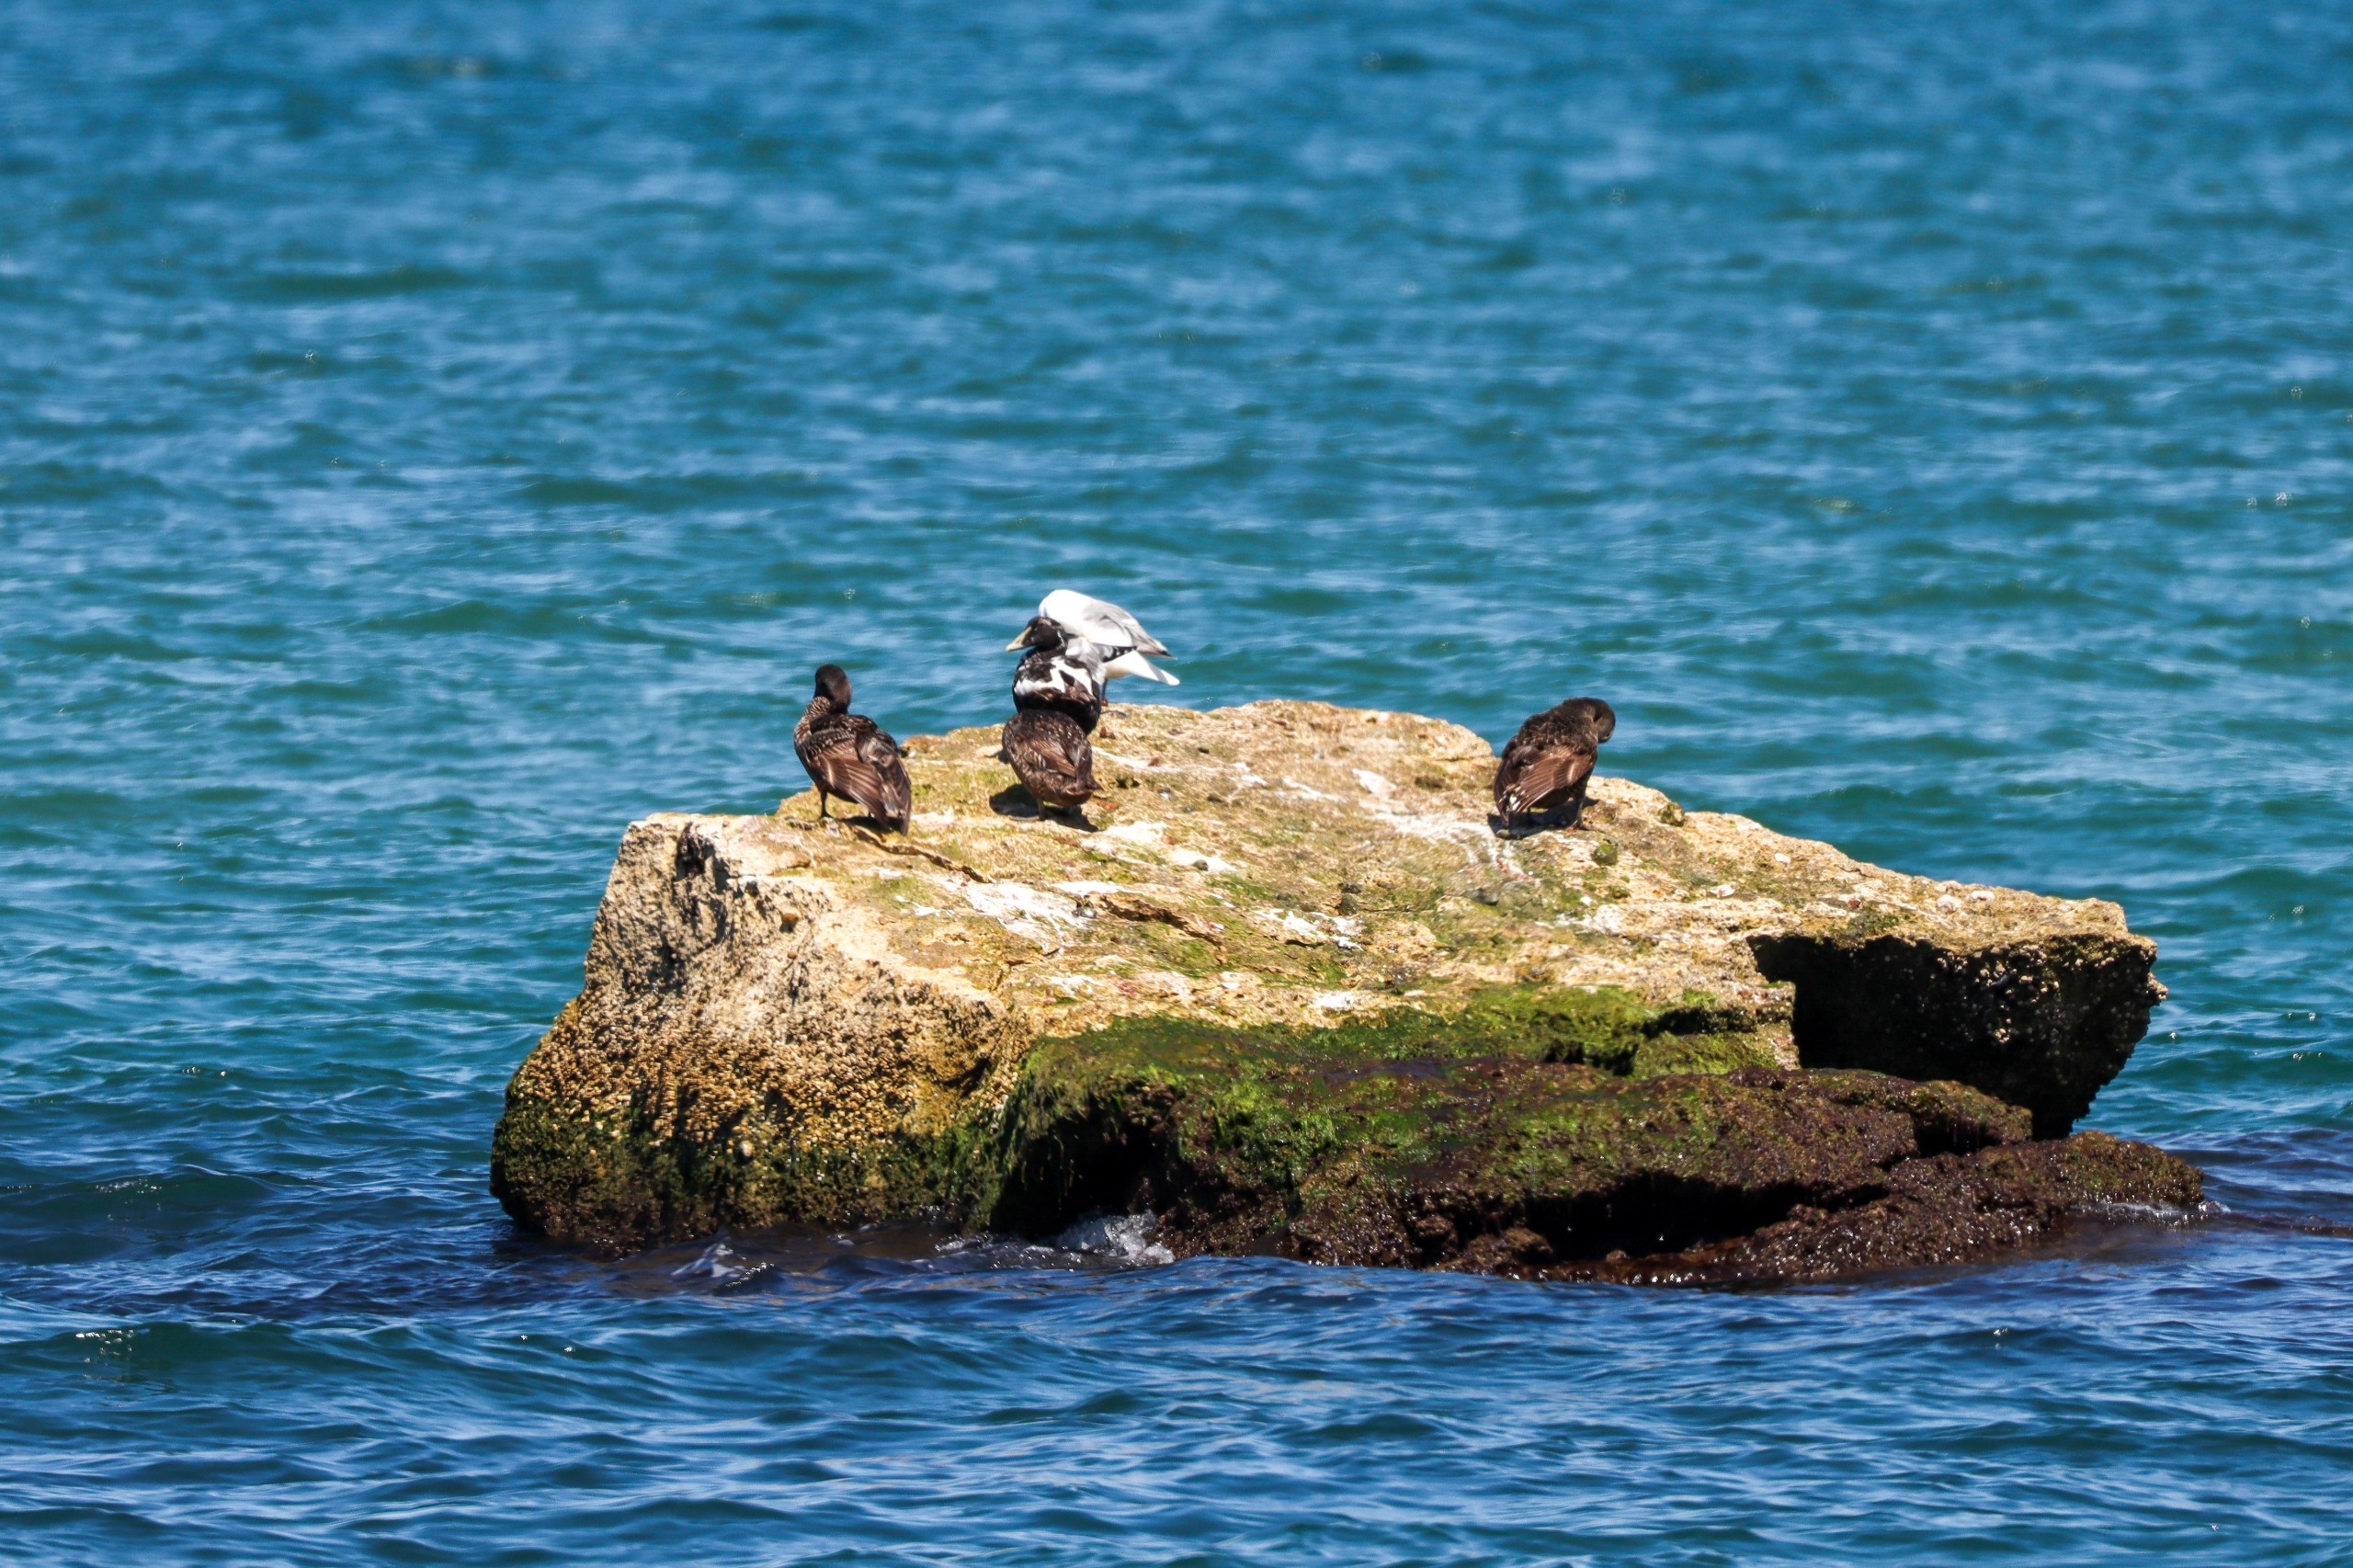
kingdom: Animalia
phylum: Chordata
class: Aves
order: Anseriformes
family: Anatidae
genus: Somateria
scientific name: Somateria mollissima
